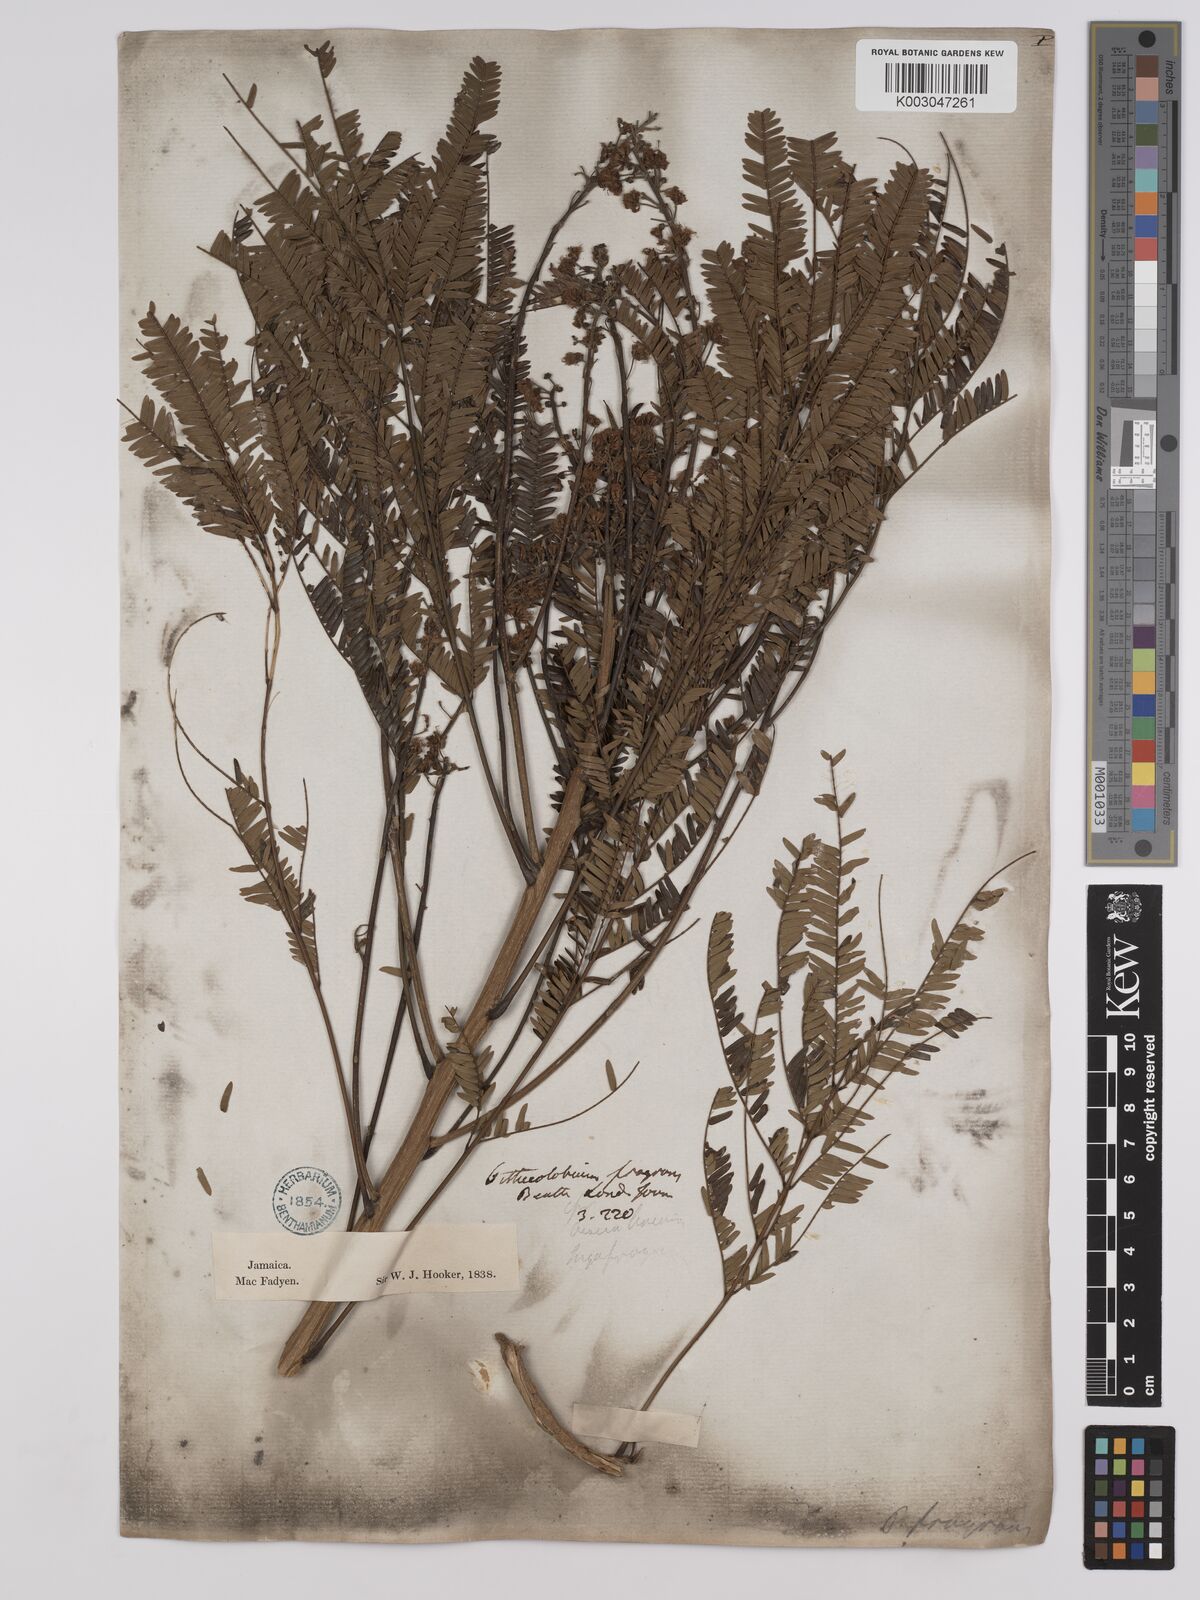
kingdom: Plantae
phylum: Tracheophyta
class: Magnoliopsida
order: Fabales
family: Fabaceae
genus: Albizia
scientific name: Albizia
